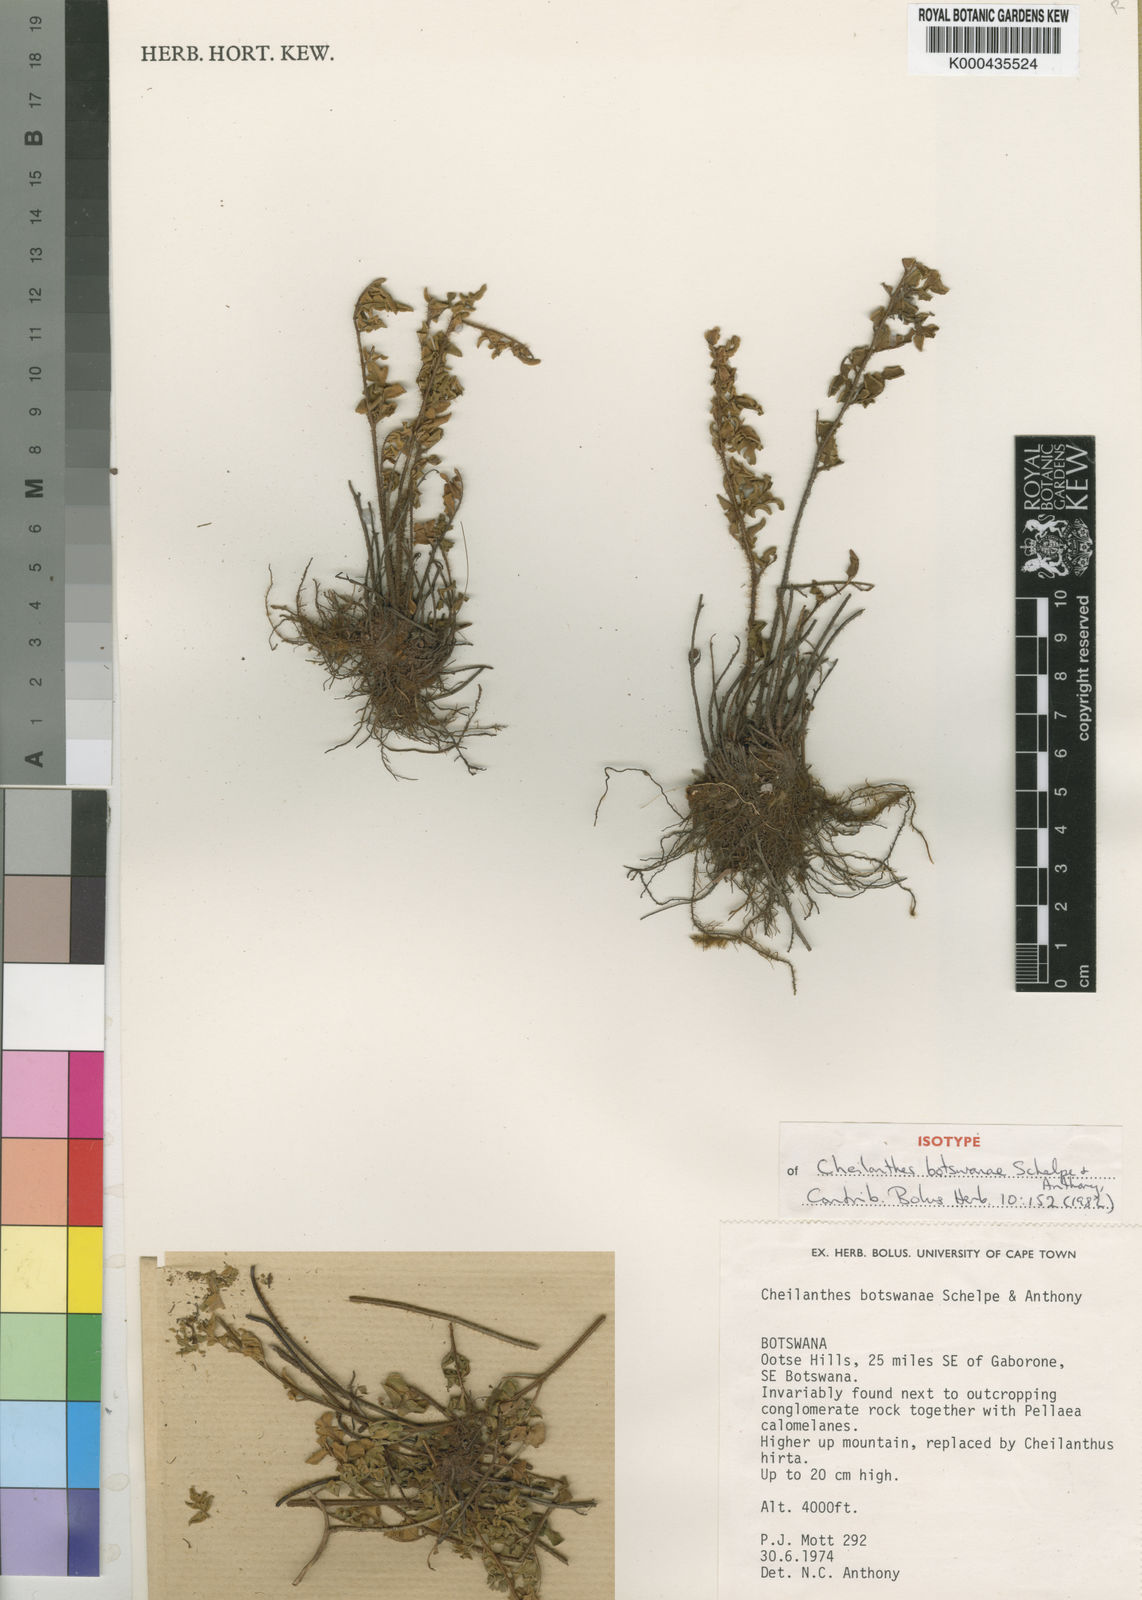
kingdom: Plantae
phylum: Tracheophyta
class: Polypodiopsida
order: Polypodiales
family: Pteridaceae
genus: Cheilanthes
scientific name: Cheilanthes botswanae
